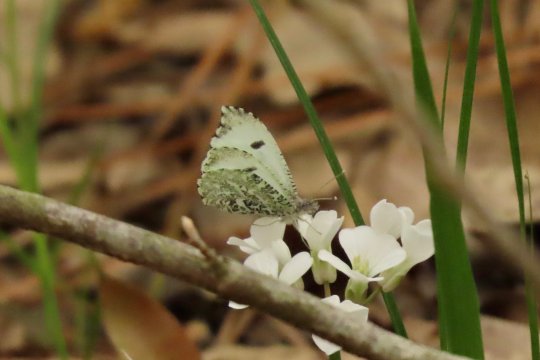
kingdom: Animalia
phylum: Arthropoda
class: Insecta
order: Lepidoptera
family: Pieridae
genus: Anthocharis
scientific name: Anthocharis midea
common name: Falcate Orangetip
